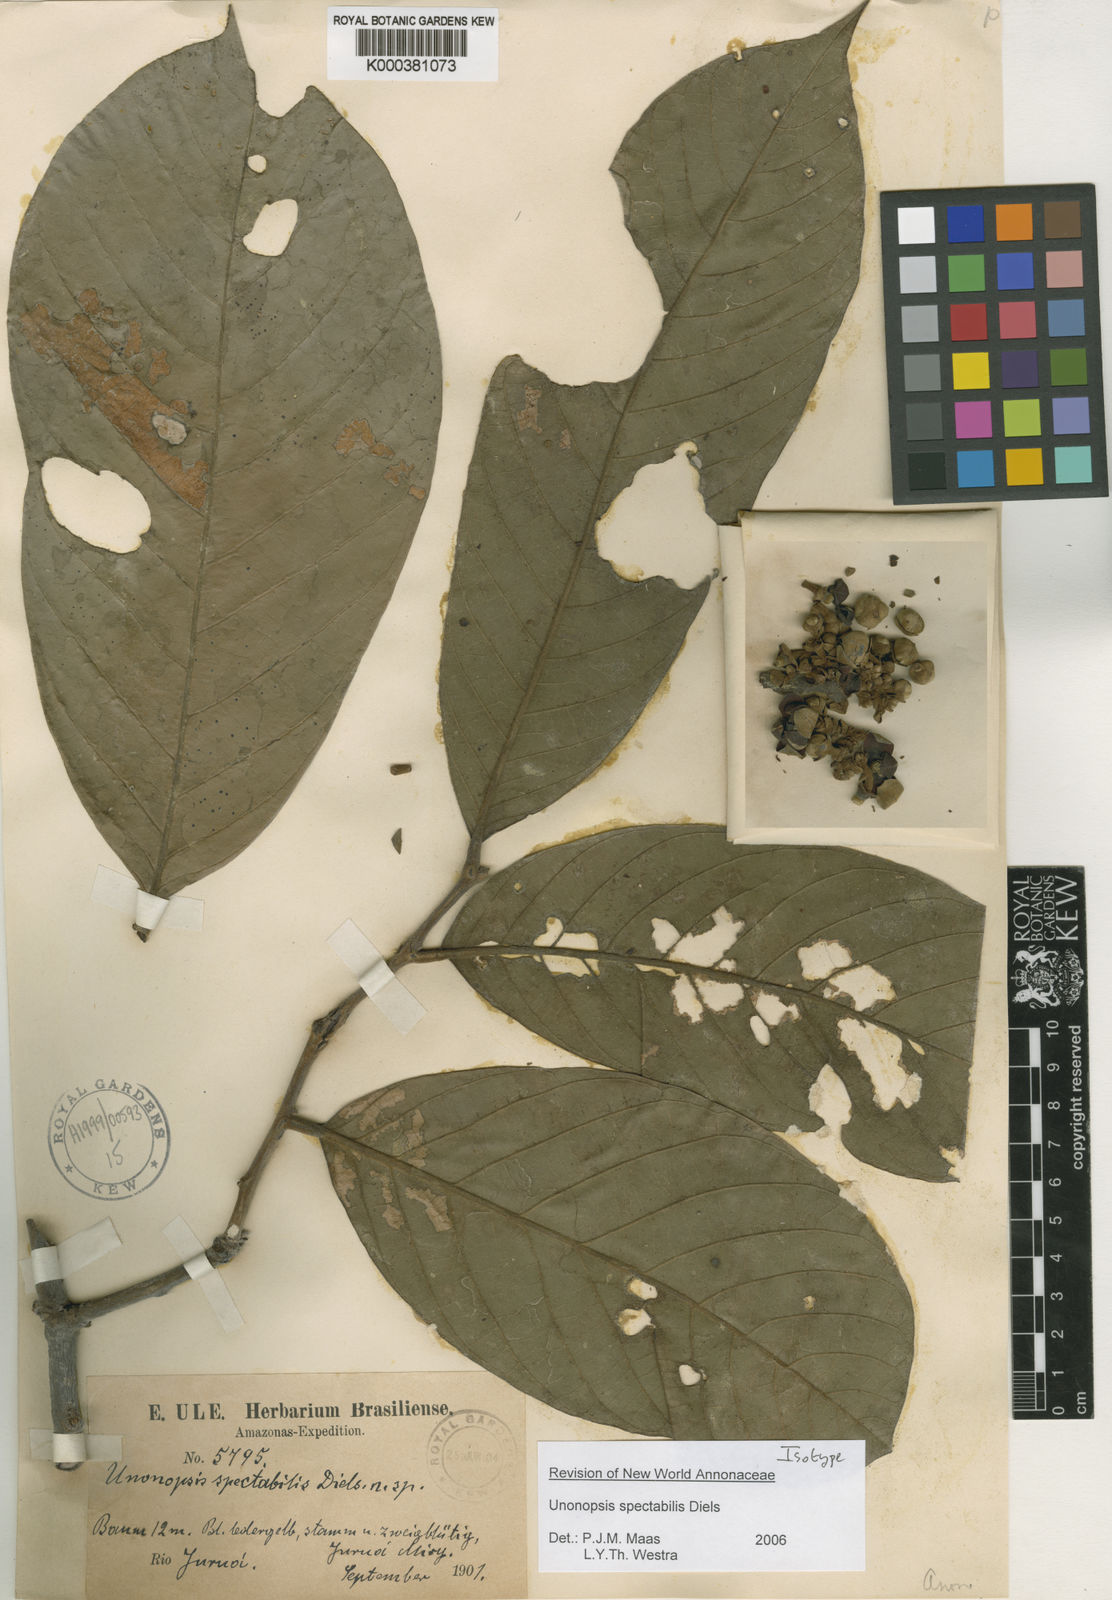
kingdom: Plantae
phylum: Tracheophyta
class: Magnoliopsida
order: Magnoliales
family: Annonaceae
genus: Unonopsis
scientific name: Unonopsis spectabilis
